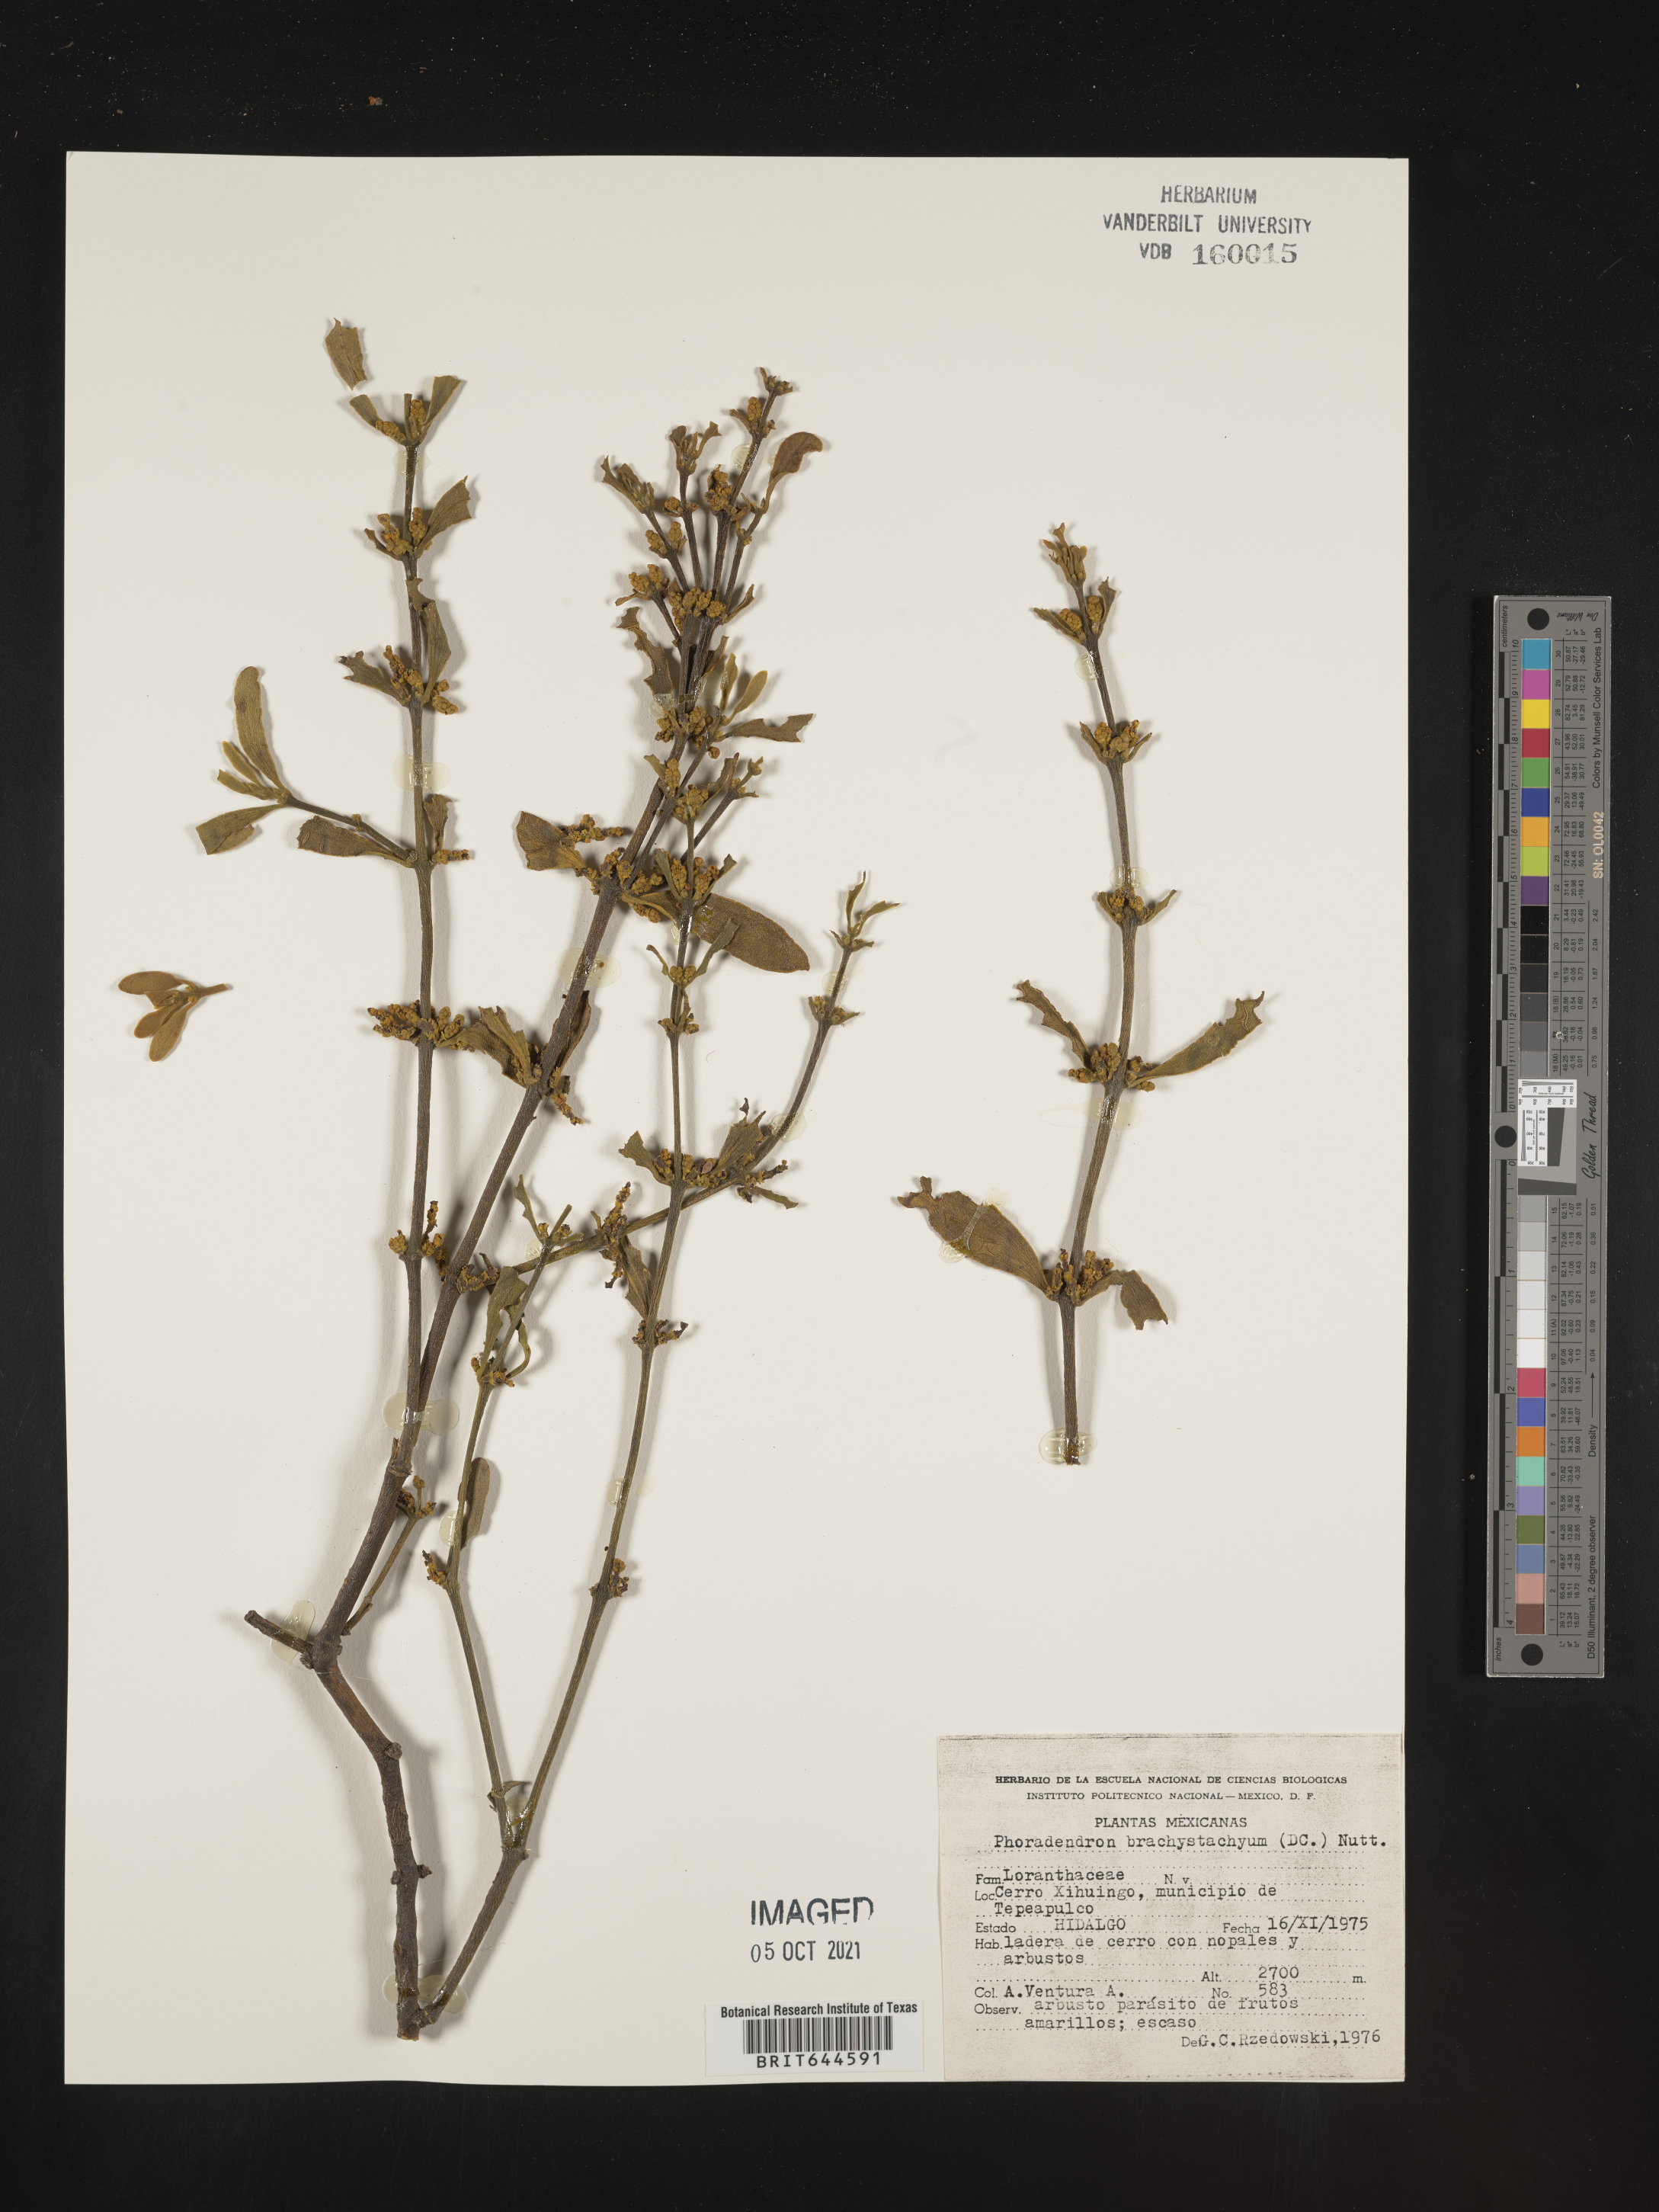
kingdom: Plantae
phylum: Tracheophyta
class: Magnoliopsida
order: Santalales
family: Viscaceae
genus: Phoradendron
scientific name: Phoradendron
